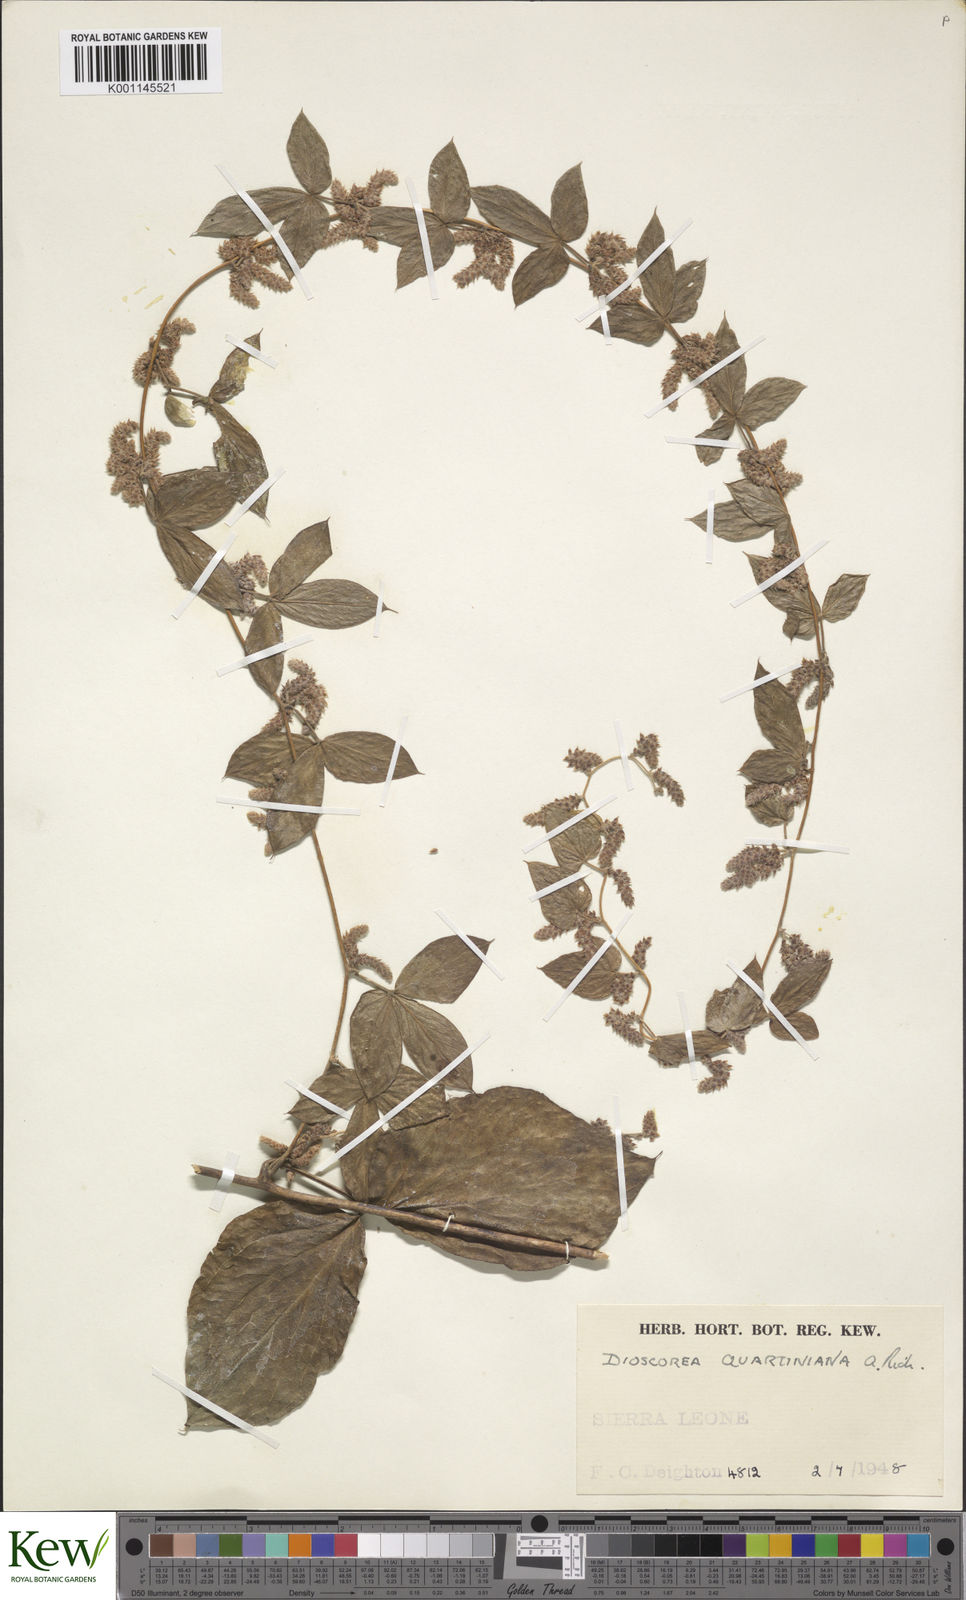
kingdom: Plantae
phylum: Tracheophyta
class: Liliopsida
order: Dioscoreales
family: Dioscoreaceae
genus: Dioscorea
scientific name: Dioscorea quartiniana
